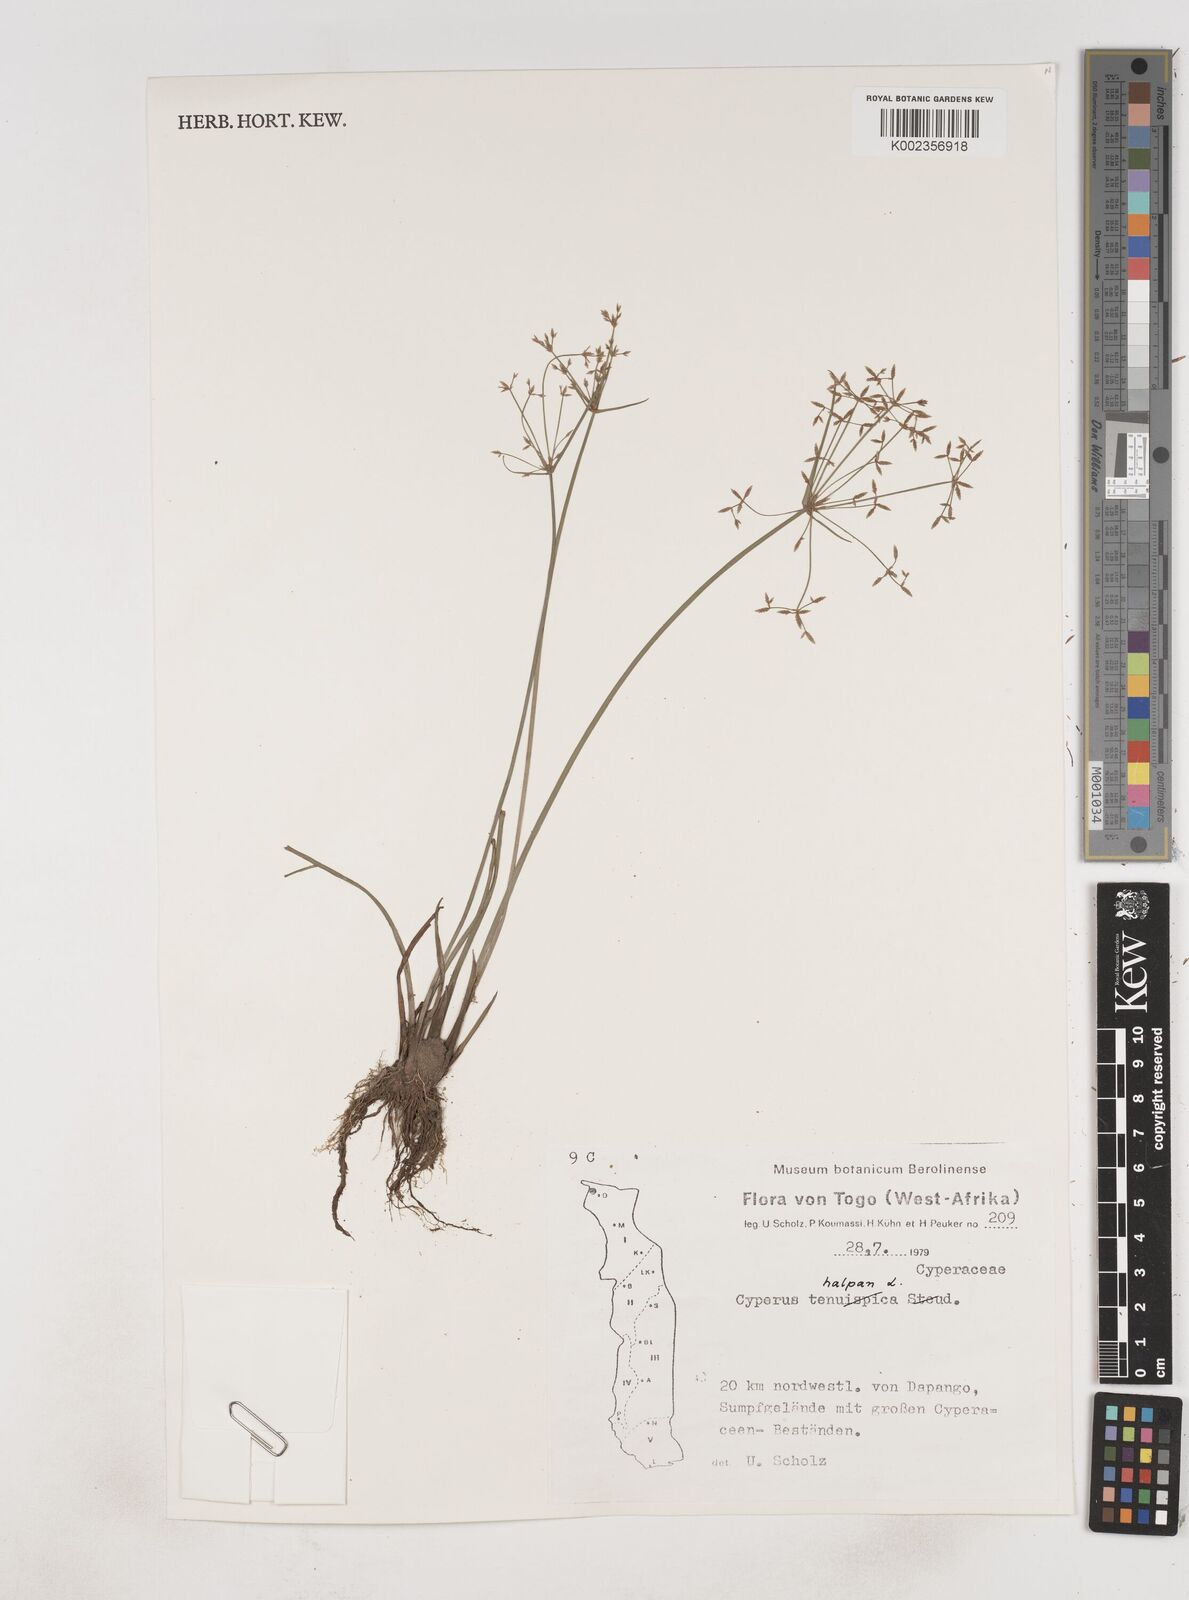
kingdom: Plantae
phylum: Tracheophyta
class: Liliopsida
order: Poales
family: Cyperaceae
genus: Cyperus
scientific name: Cyperus haspan
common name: Haspan flatsedge
